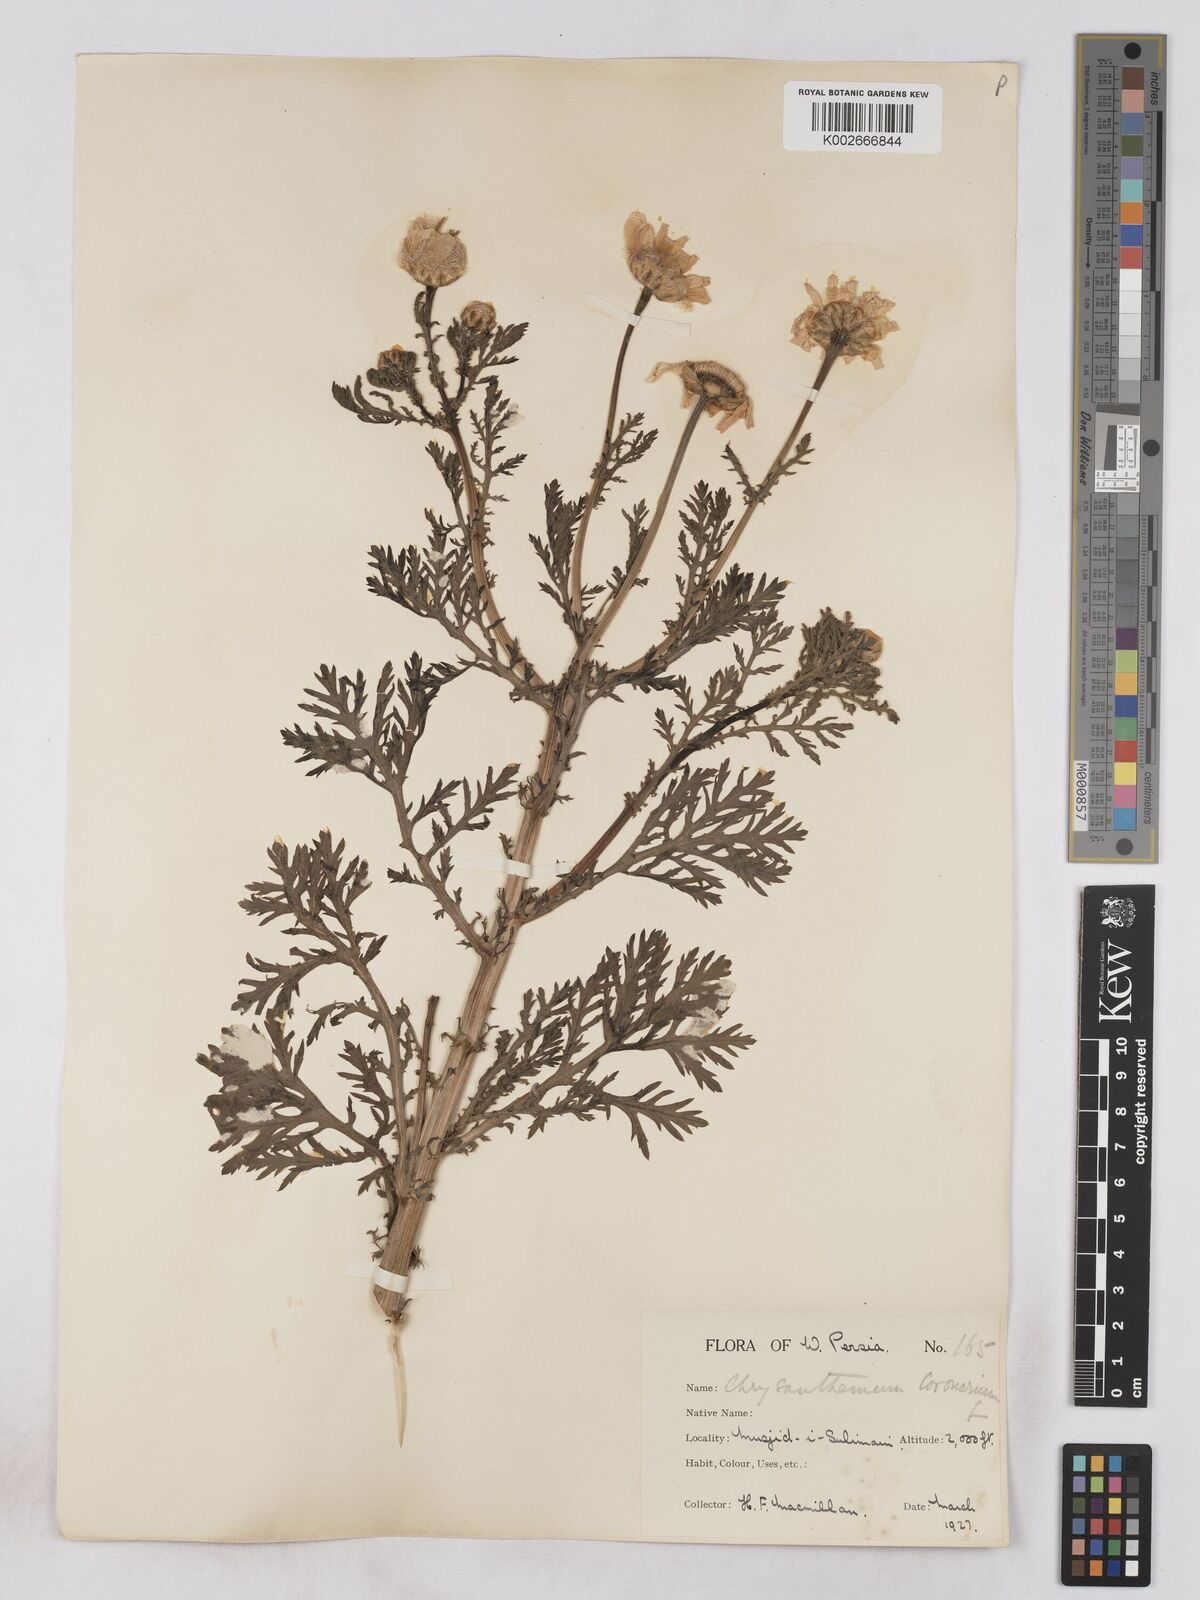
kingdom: Plantae
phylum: Tracheophyta
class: Magnoliopsida
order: Asterales
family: Asteraceae
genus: Glebionis
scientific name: Glebionis coronaria
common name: Crowndaisy
